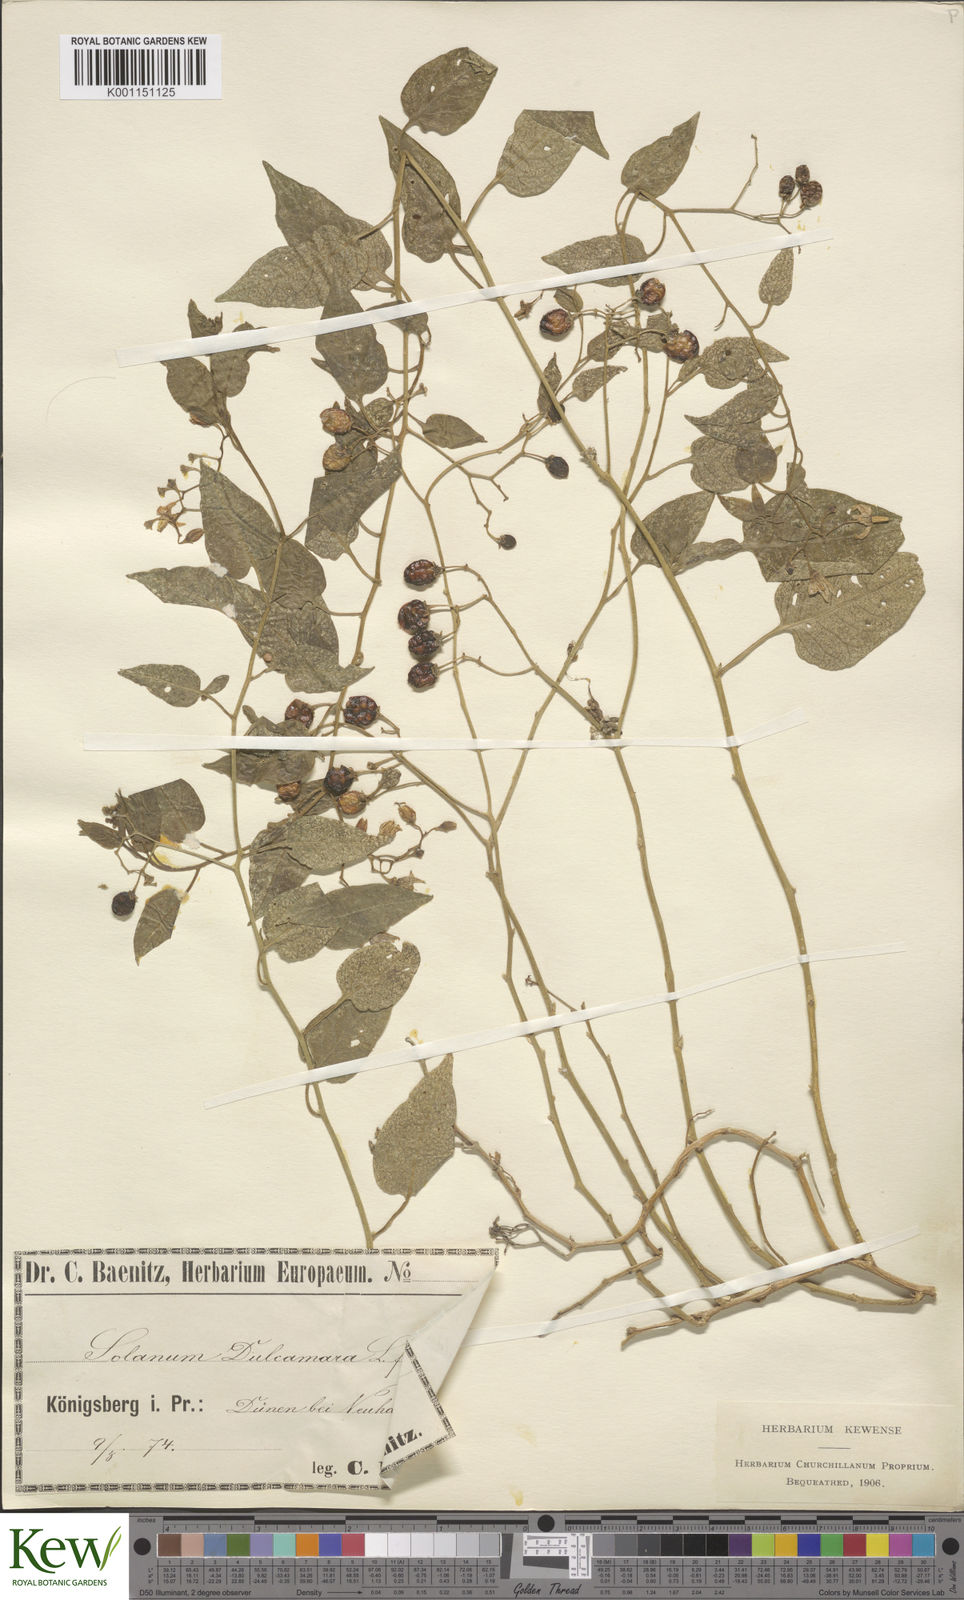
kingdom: Plantae
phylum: Tracheophyta
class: Magnoliopsida
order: Solanales
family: Solanaceae
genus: Solanum
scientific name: Solanum dulcamara
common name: Climbing nightshade
